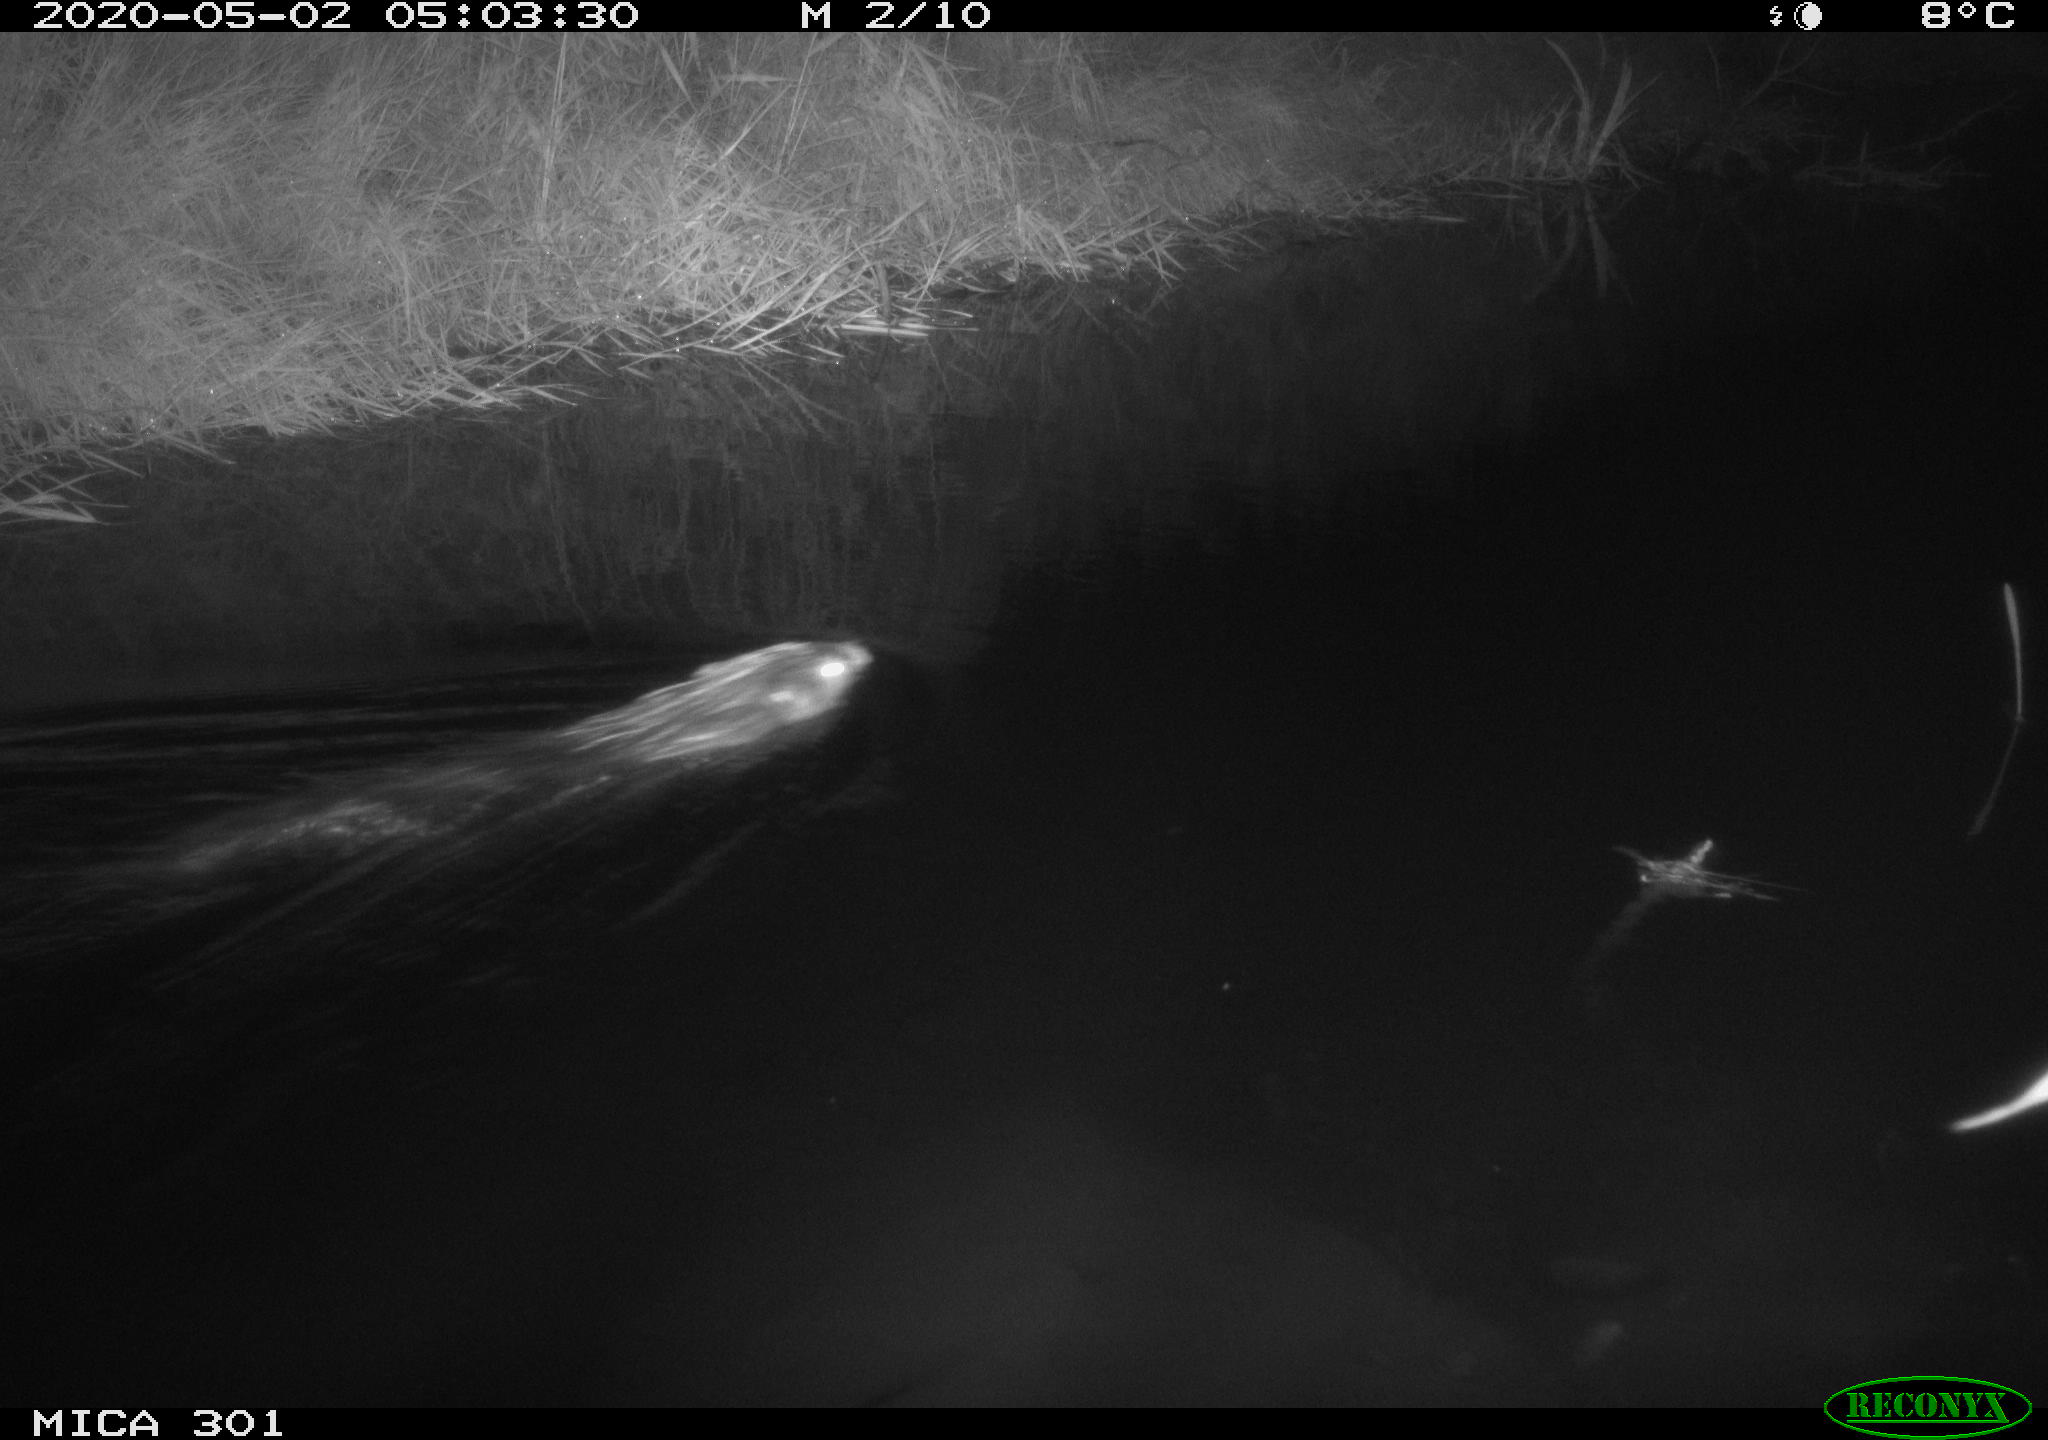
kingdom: Animalia
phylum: Chordata
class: Mammalia
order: Rodentia
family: Castoridae
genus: Castor
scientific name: Castor fiber
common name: Eurasian beaver
